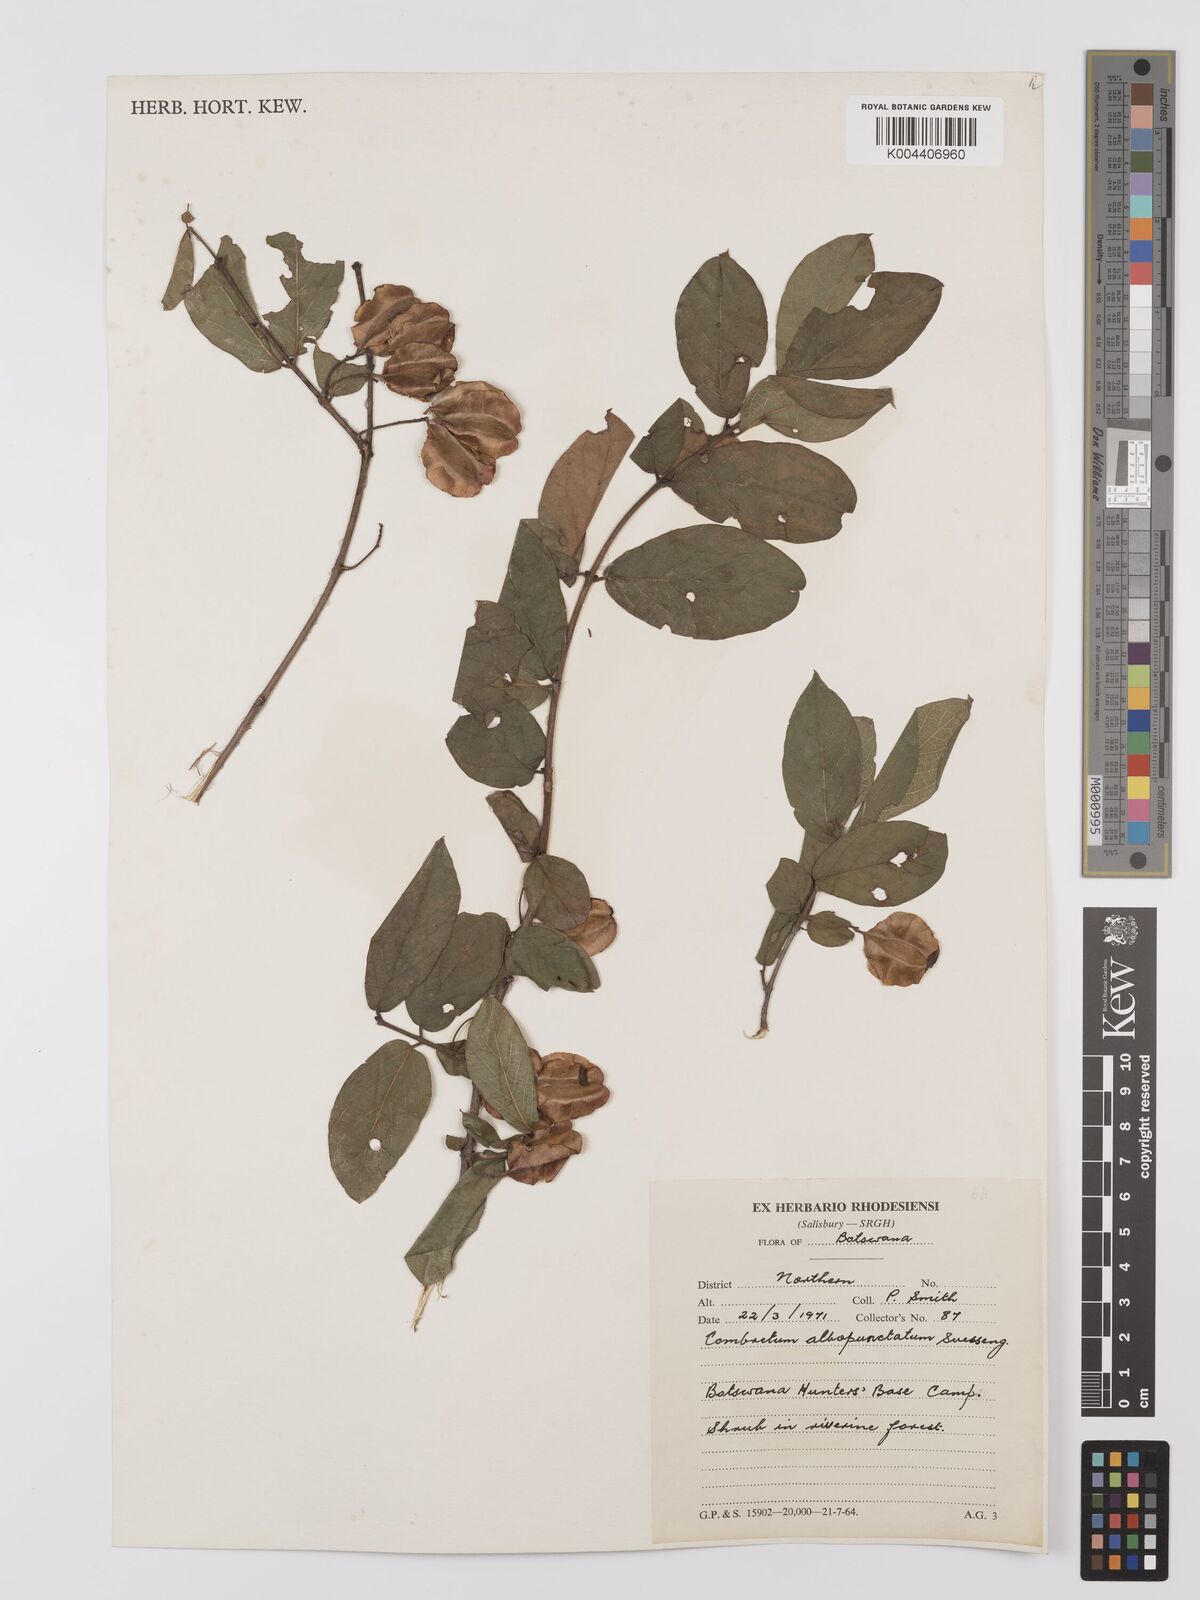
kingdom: Plantae
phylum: Tracheophyta
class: Magnoliopsida
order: Myrtales
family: Combretaceae
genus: Combretum
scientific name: Combretum albopunctatum
